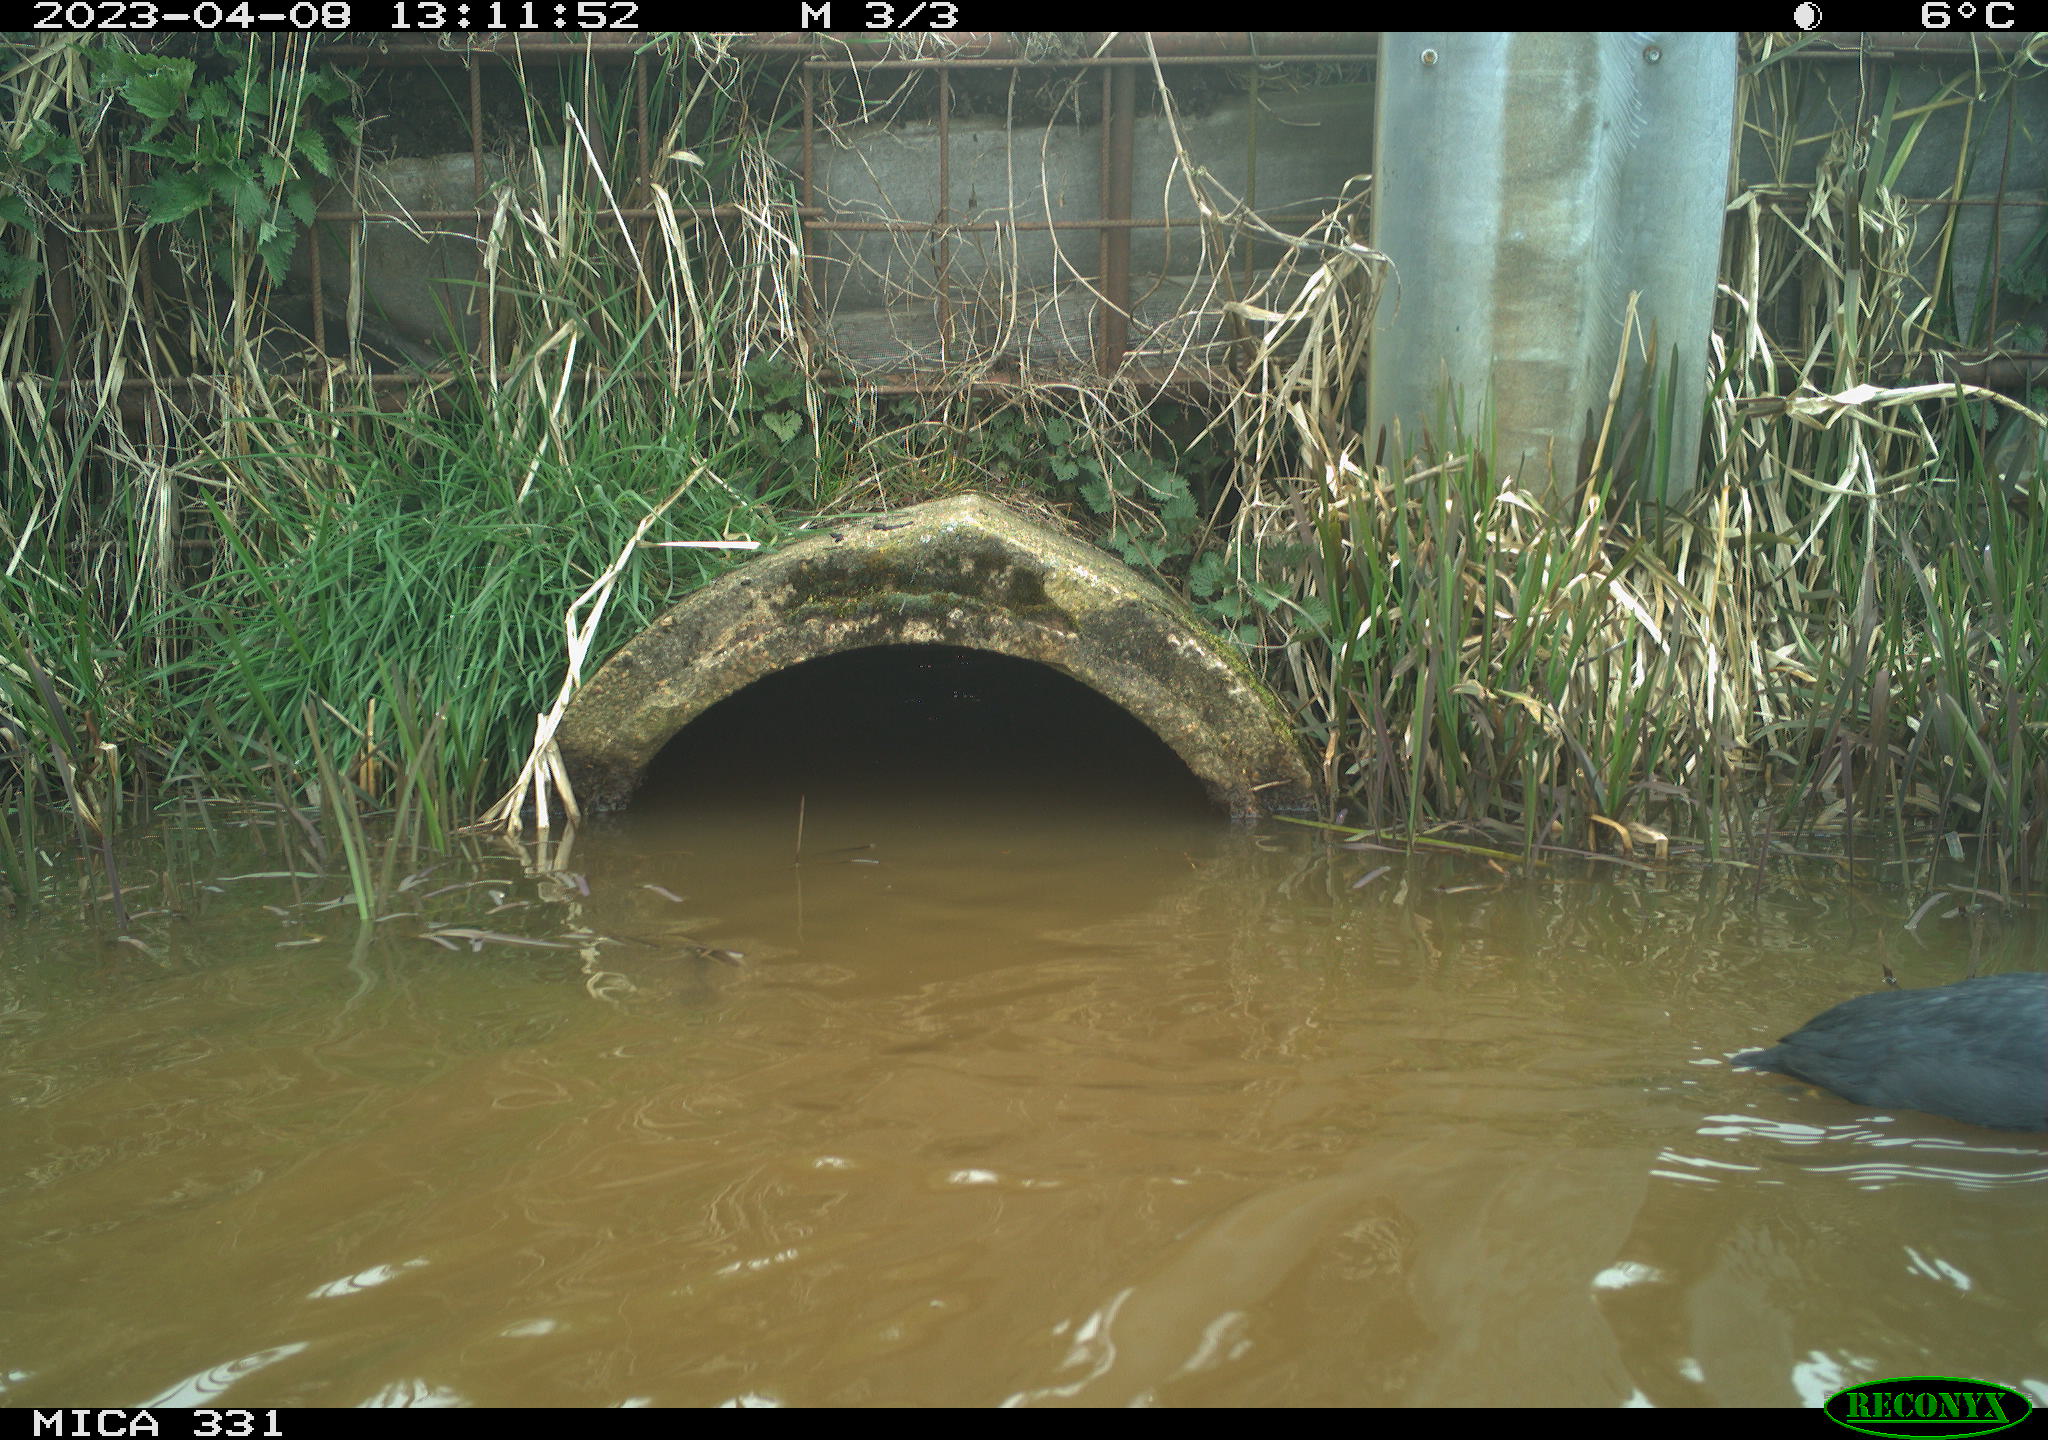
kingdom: Animalia
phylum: Chordata
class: Aves
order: Gruiformes
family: Rallidae
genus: Fulica
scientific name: Fulica atra
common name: Eurasian coot
